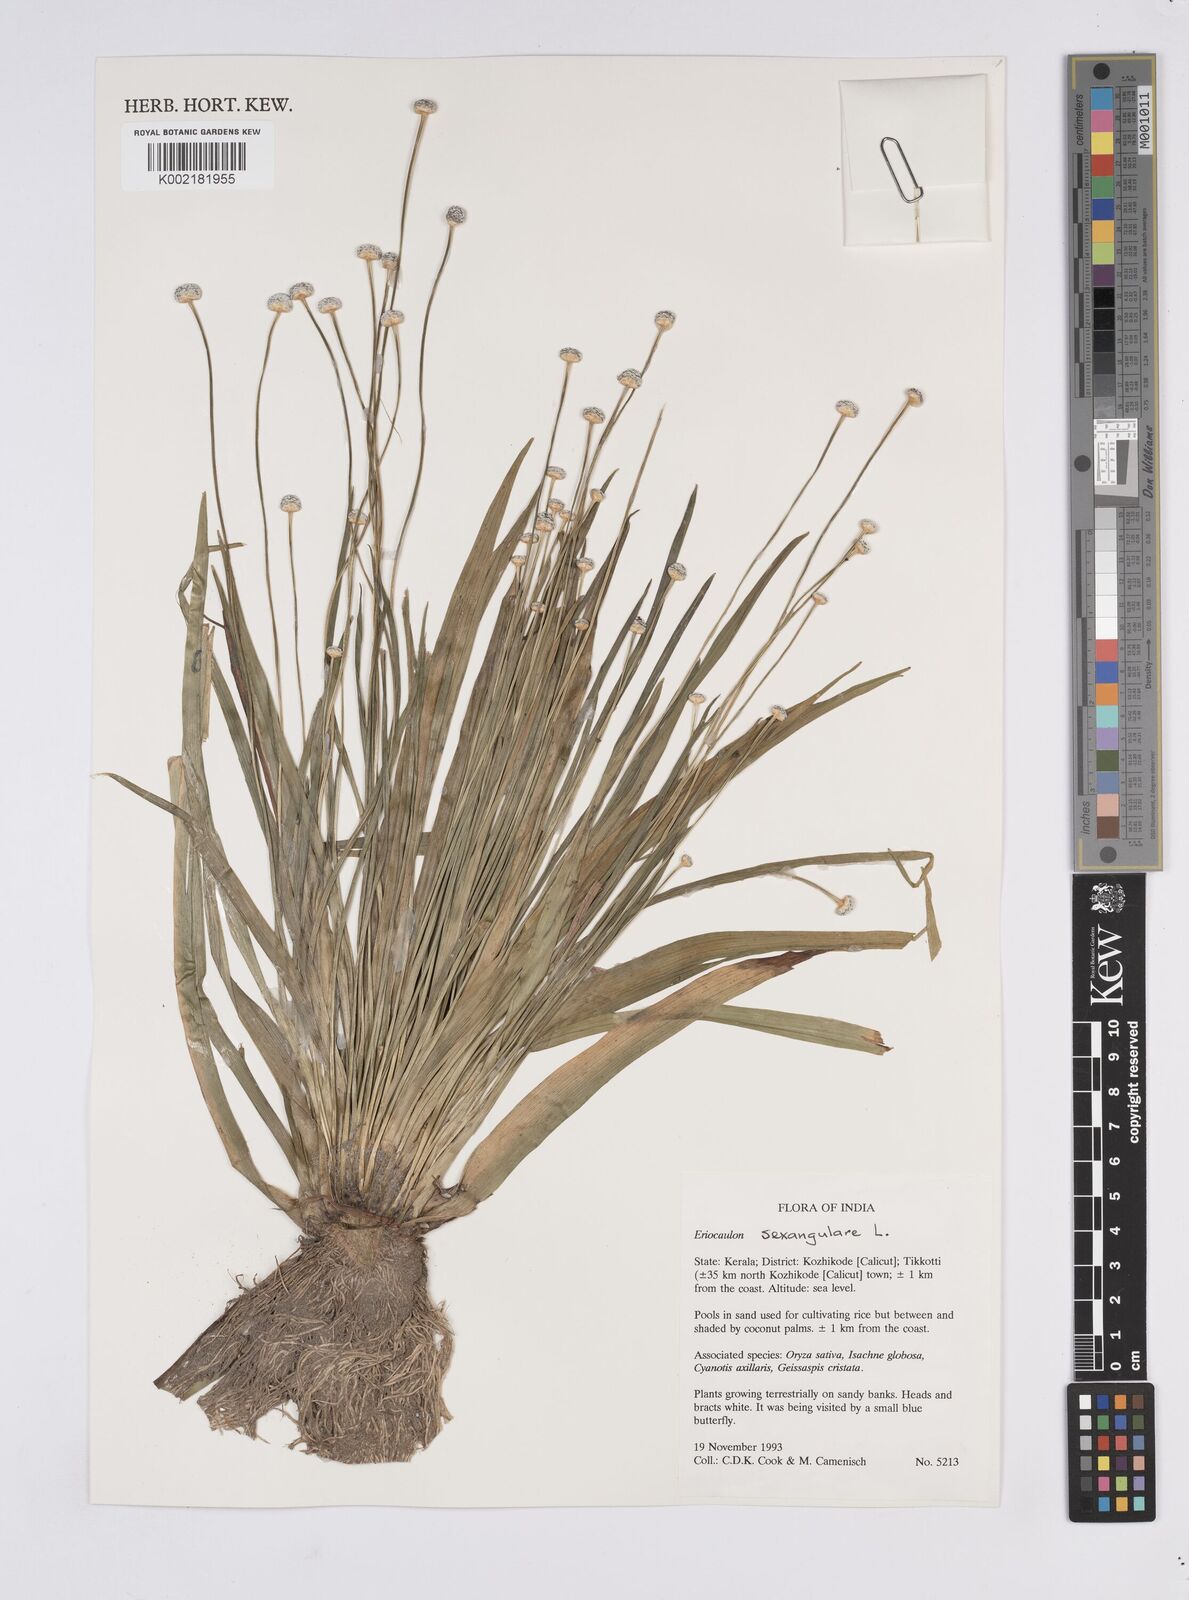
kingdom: Plantae
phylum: Tracheophyta
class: Liliopsida
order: Poales
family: Eriocaulaceae
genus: Eriocaulon
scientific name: Eriocaulon sexangulare
